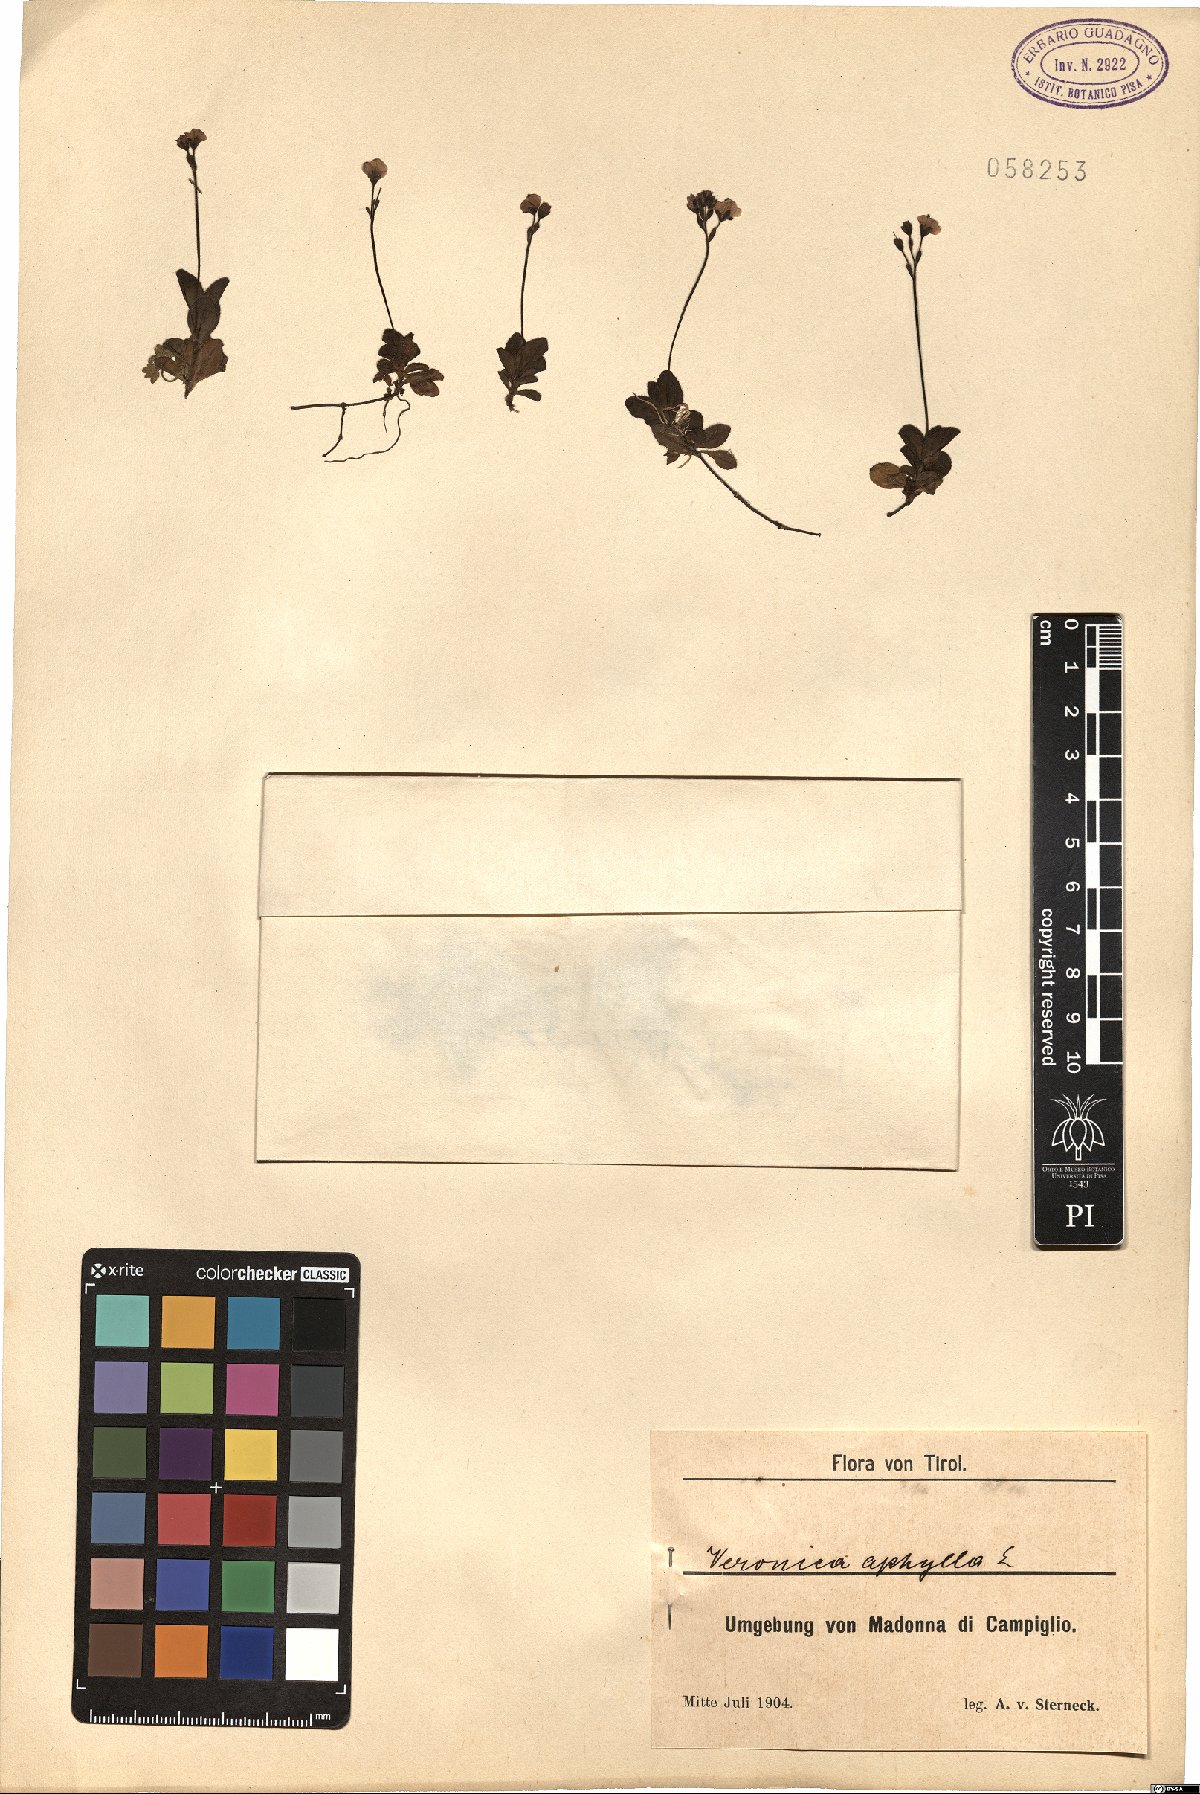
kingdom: Plantae
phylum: Tracheophyta
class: Magnoliopsida
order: Lamiales
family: Plantaginaceae
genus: Veronica
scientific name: Veronica aphylla
